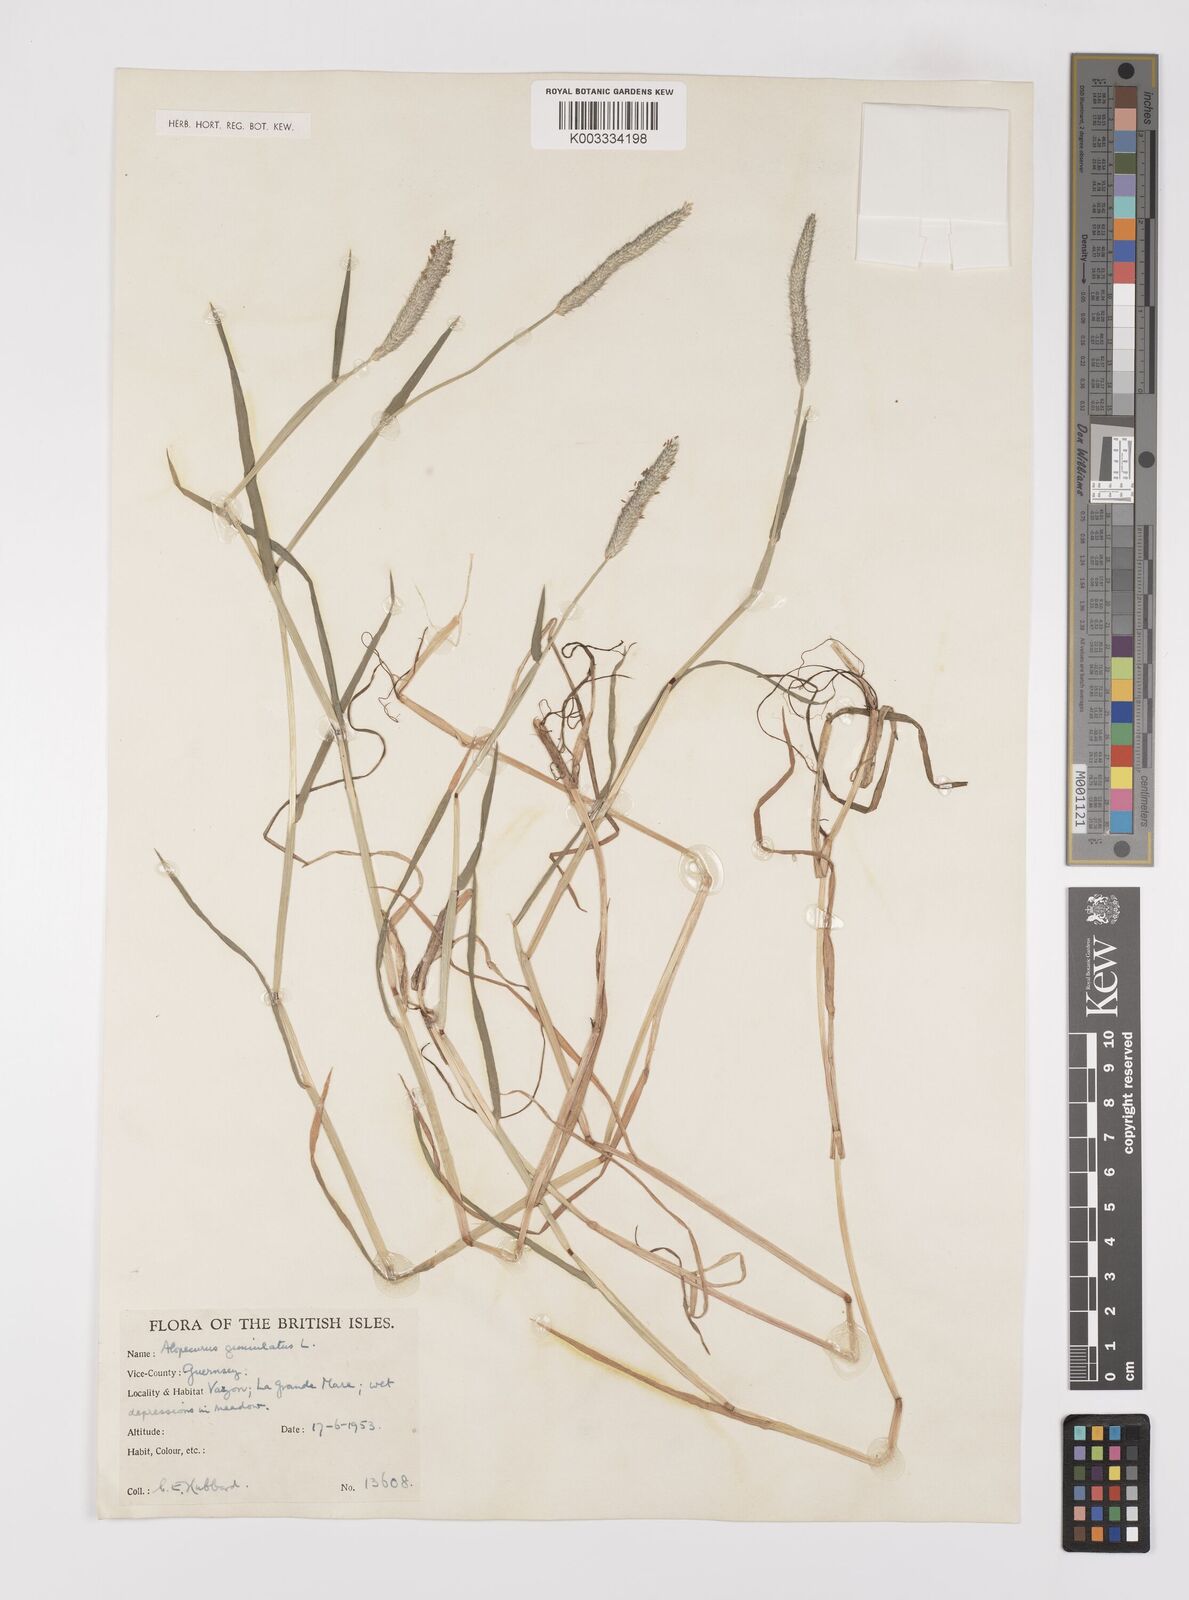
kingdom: Plantae
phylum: Tracheophyta
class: Liliopsida
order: Poales
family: Poaceae
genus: Alopecurus
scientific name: Alopecurus geniculatus
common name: Water foxtail
